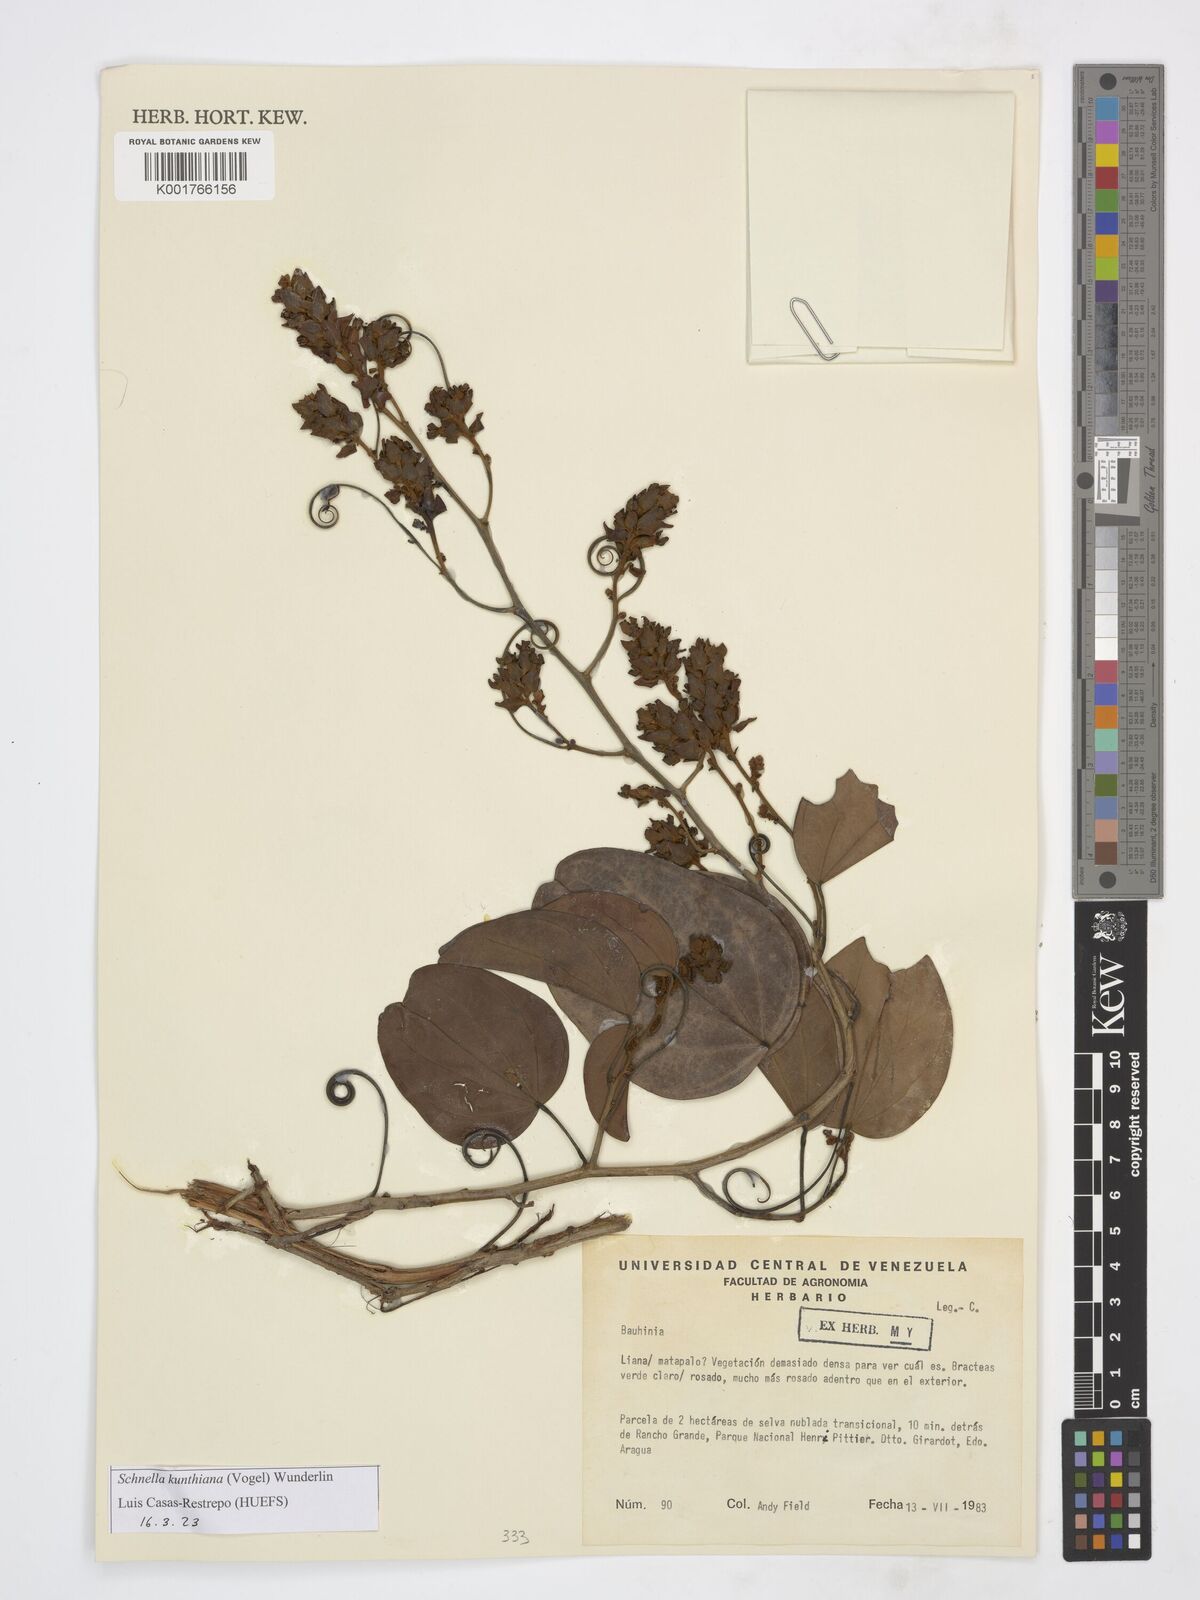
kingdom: Plantae
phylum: Tracheophyta
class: Magnoliopsida
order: Fabales
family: Fabaceae
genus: Schnella
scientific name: Schnella kunthiana
